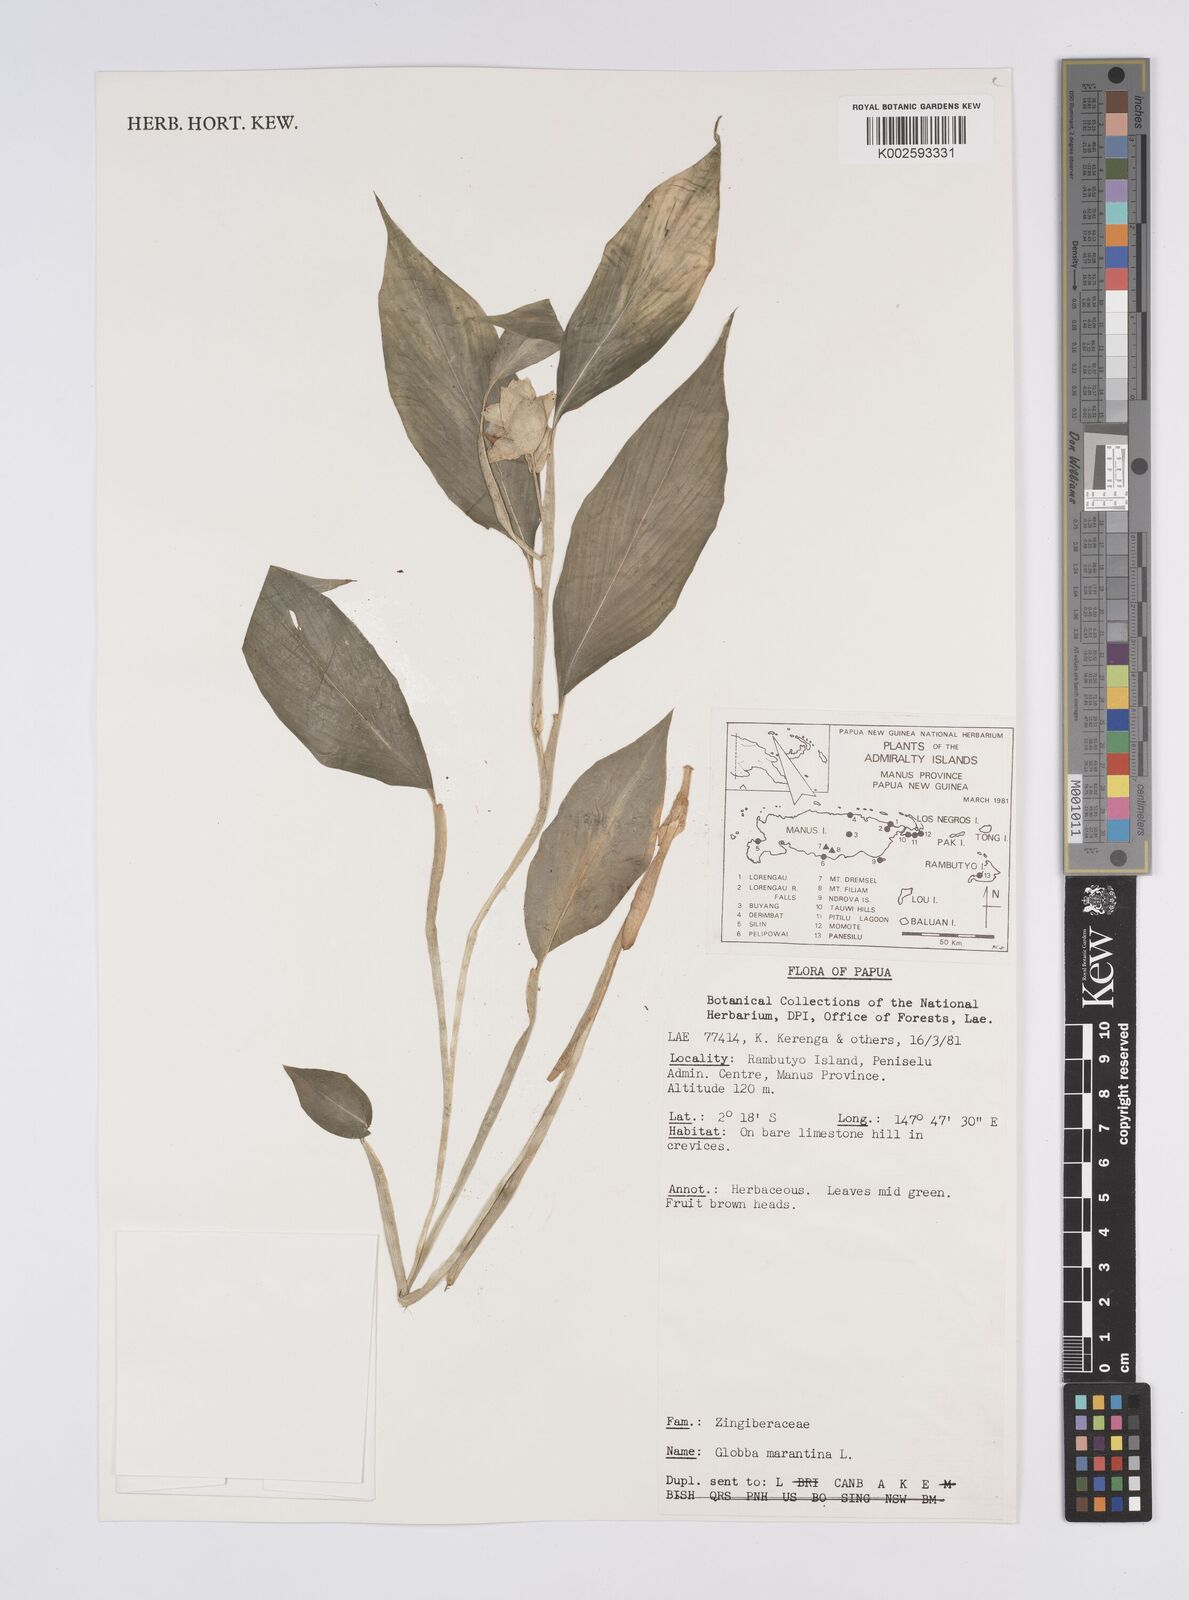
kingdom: Plantae
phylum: Tracheophyta
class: Liliopsida
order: Zingiberales
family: Zingiberaceae
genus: Globba
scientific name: Globba marantina
